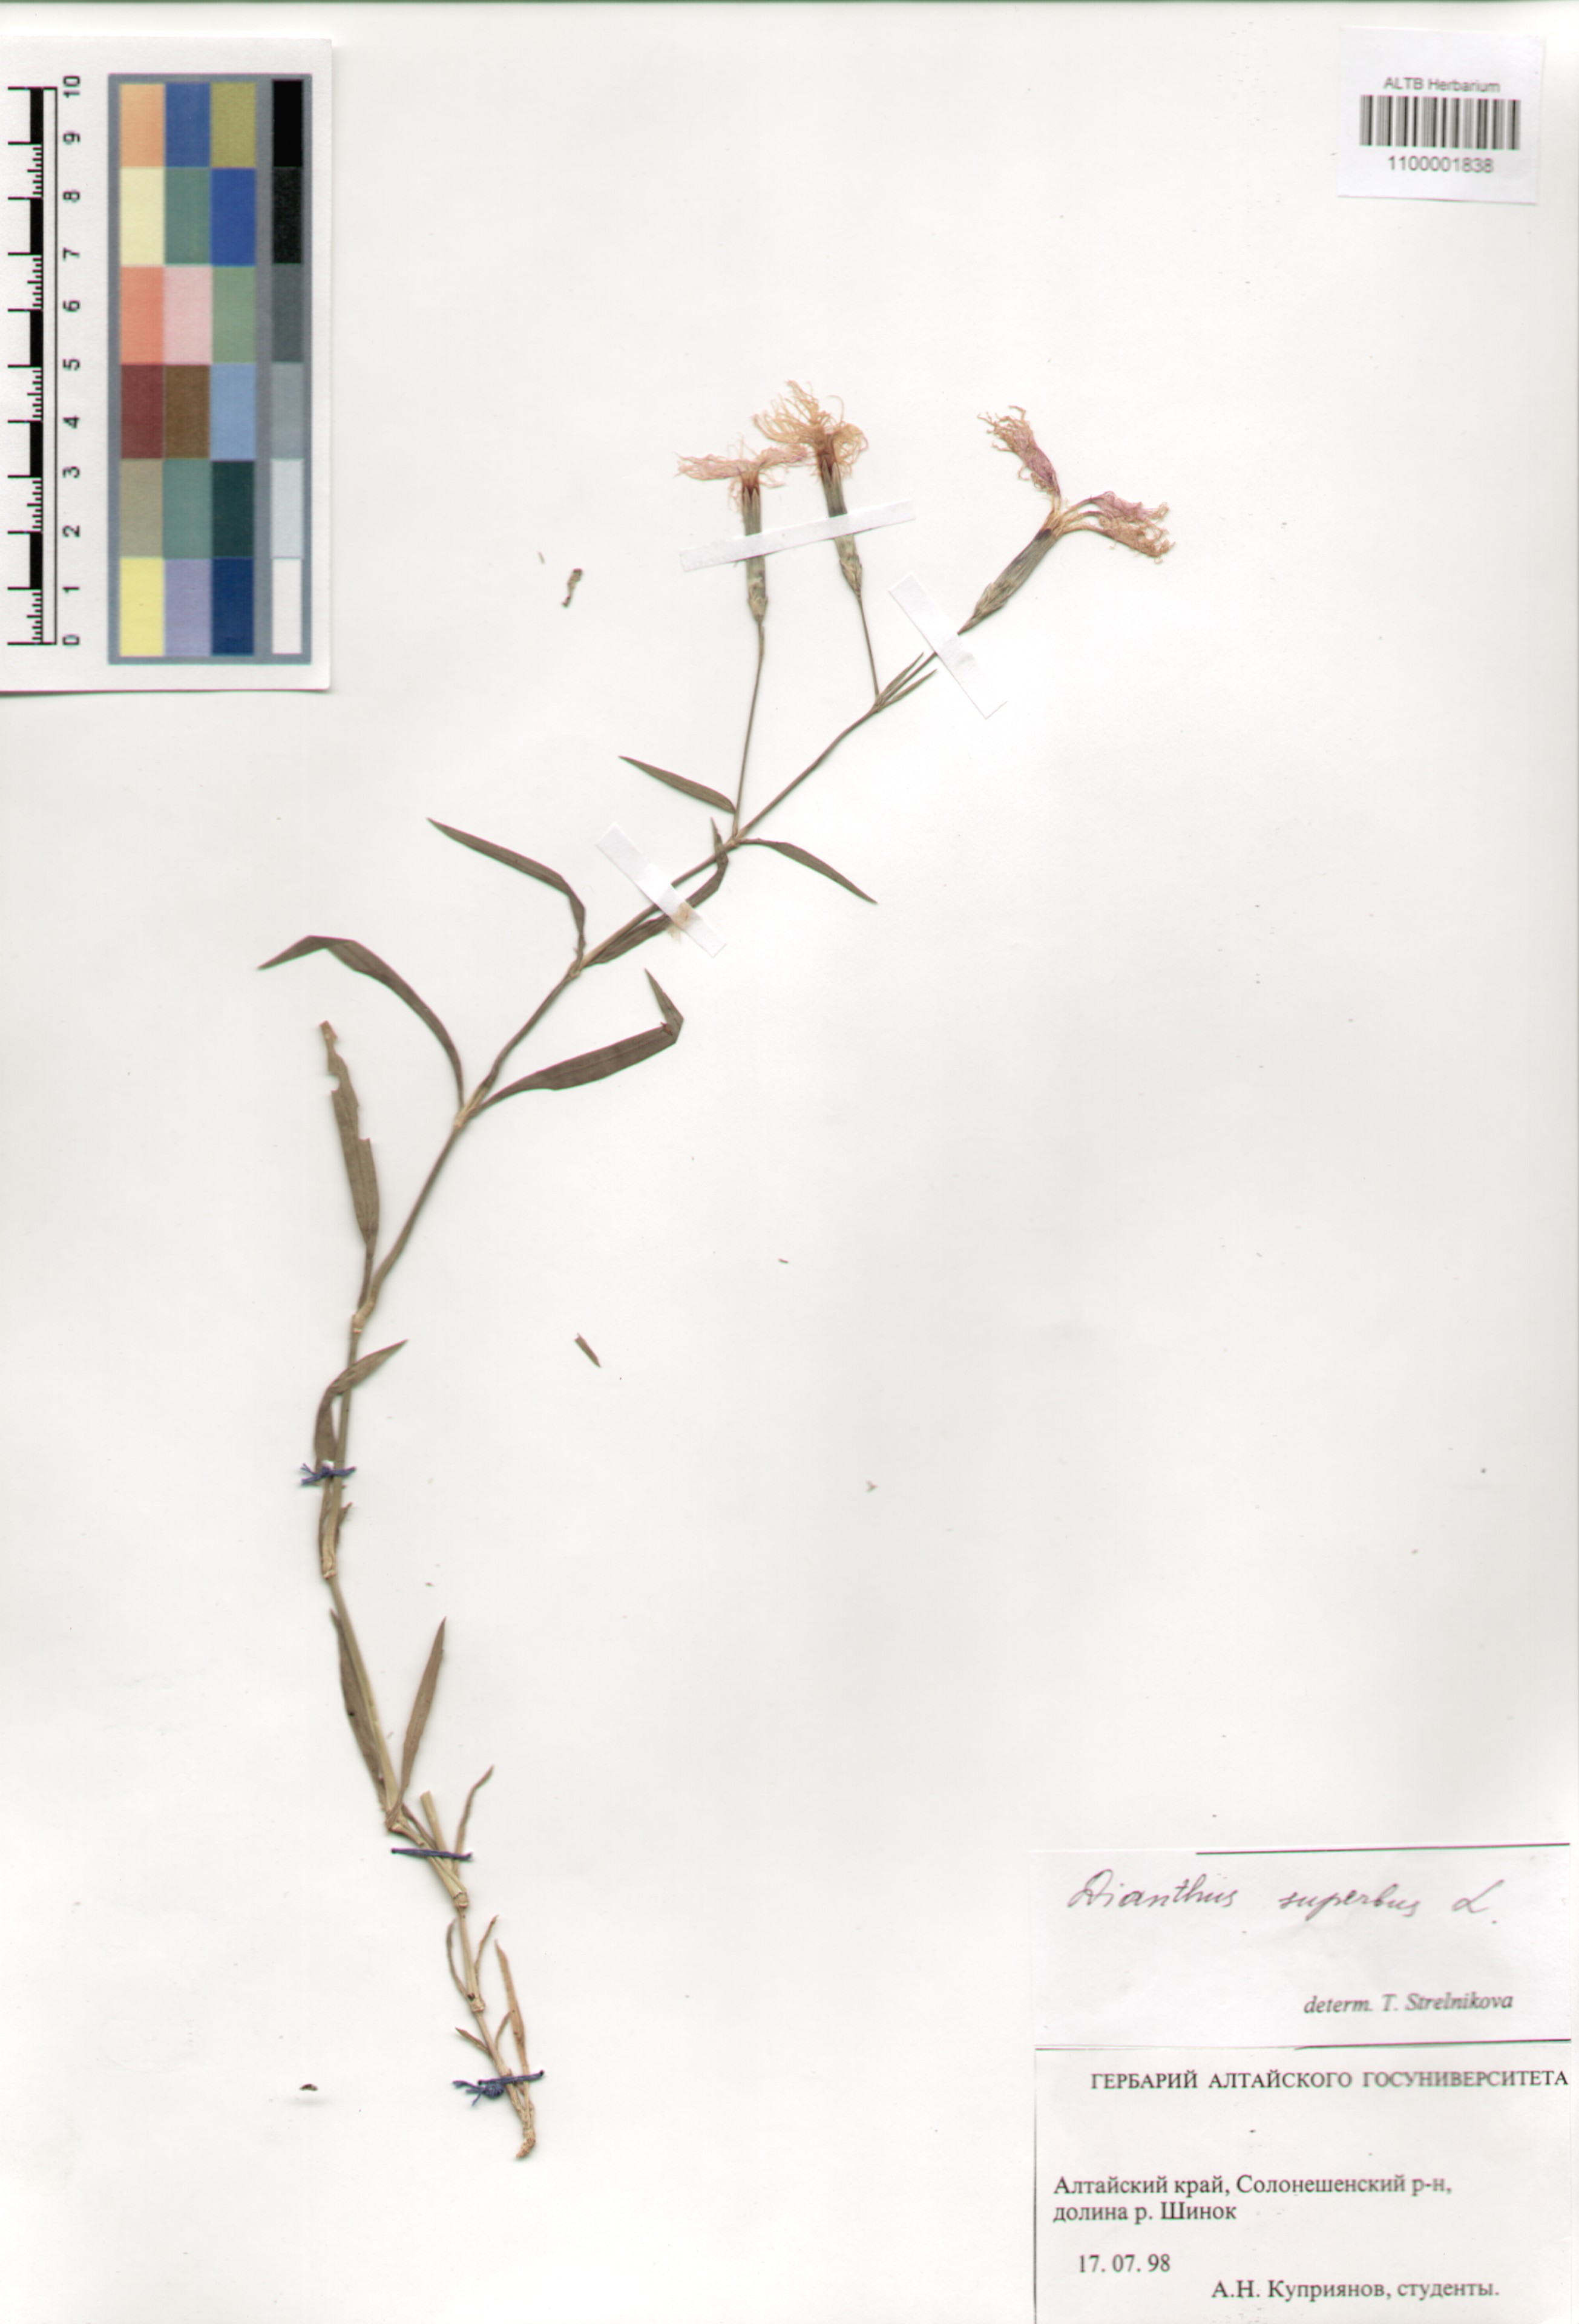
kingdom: Plantae
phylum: Tracheophyta
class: Magnoliopsida
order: Caryophyllales
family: Caryophyllaceae
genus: Dianthus
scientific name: Dianthus superbus
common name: Fringed pink
